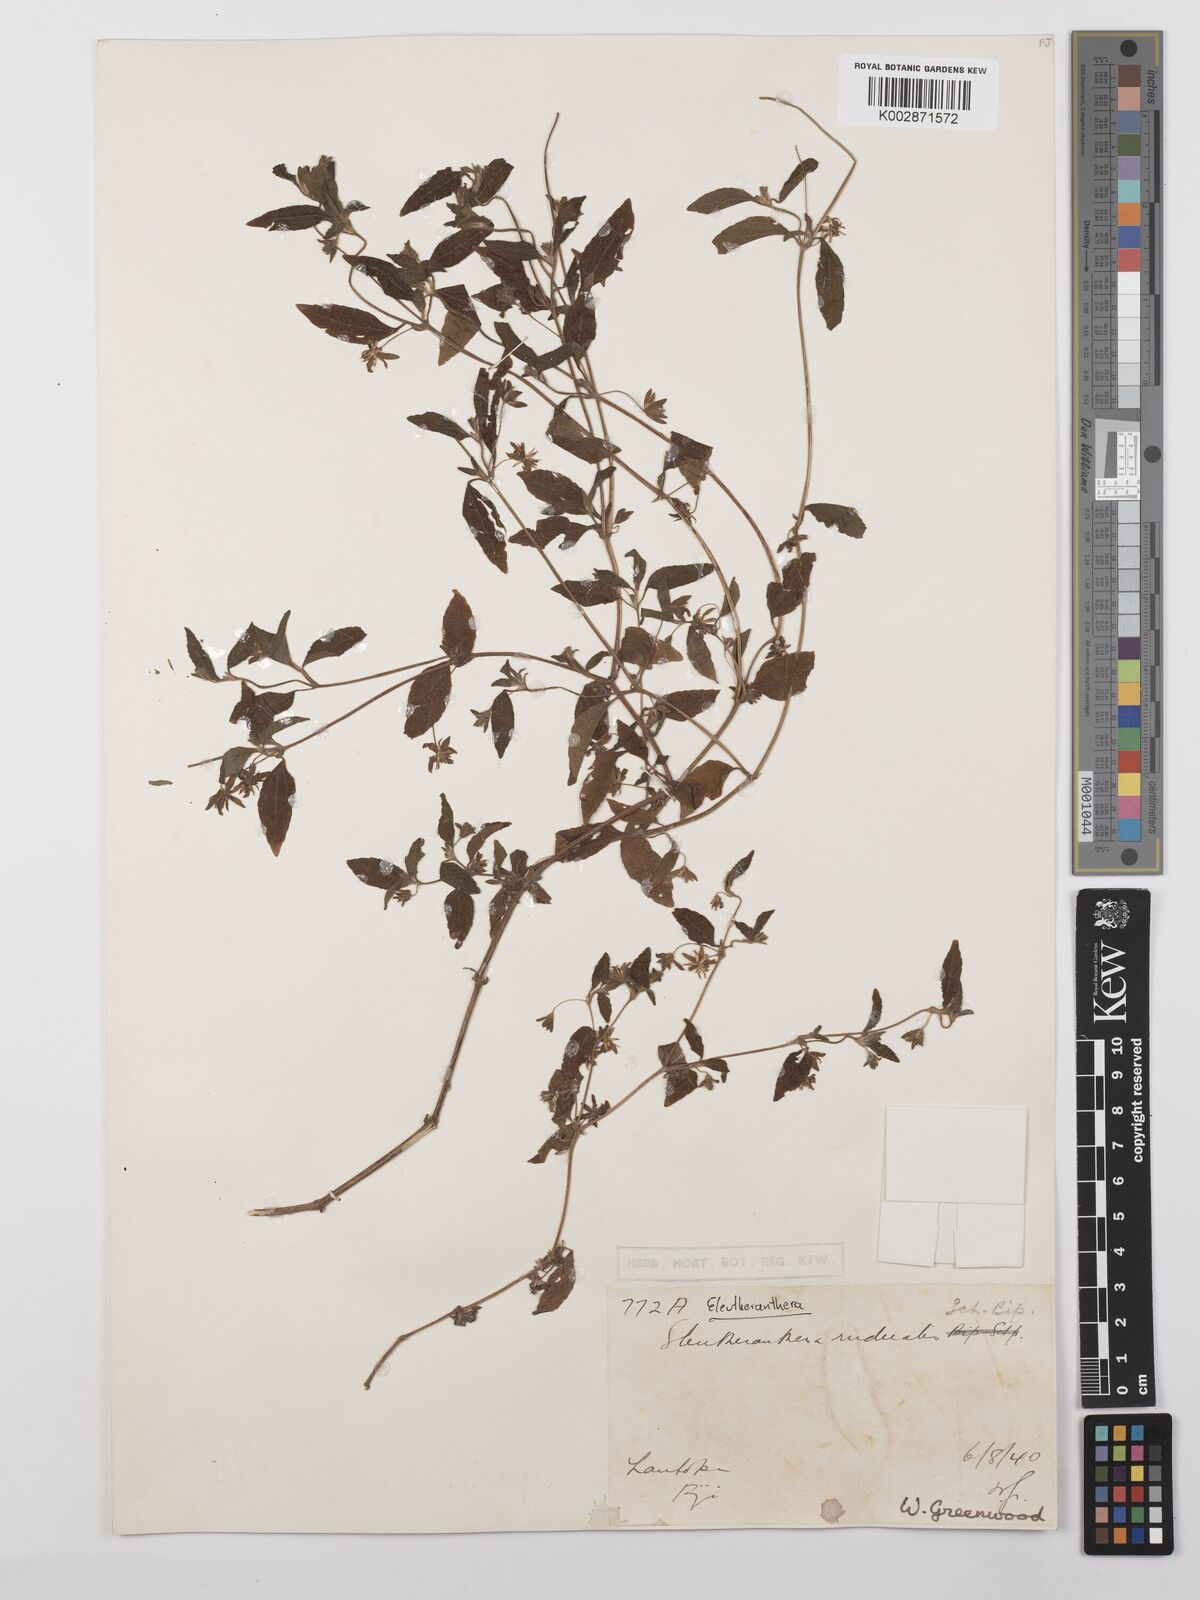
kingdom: Plantae
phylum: Tracheophyta
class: Magnoliopsida
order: Asterales
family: Asteraceae
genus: Eleutheranthera
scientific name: Eleutheranthera ruderalis
